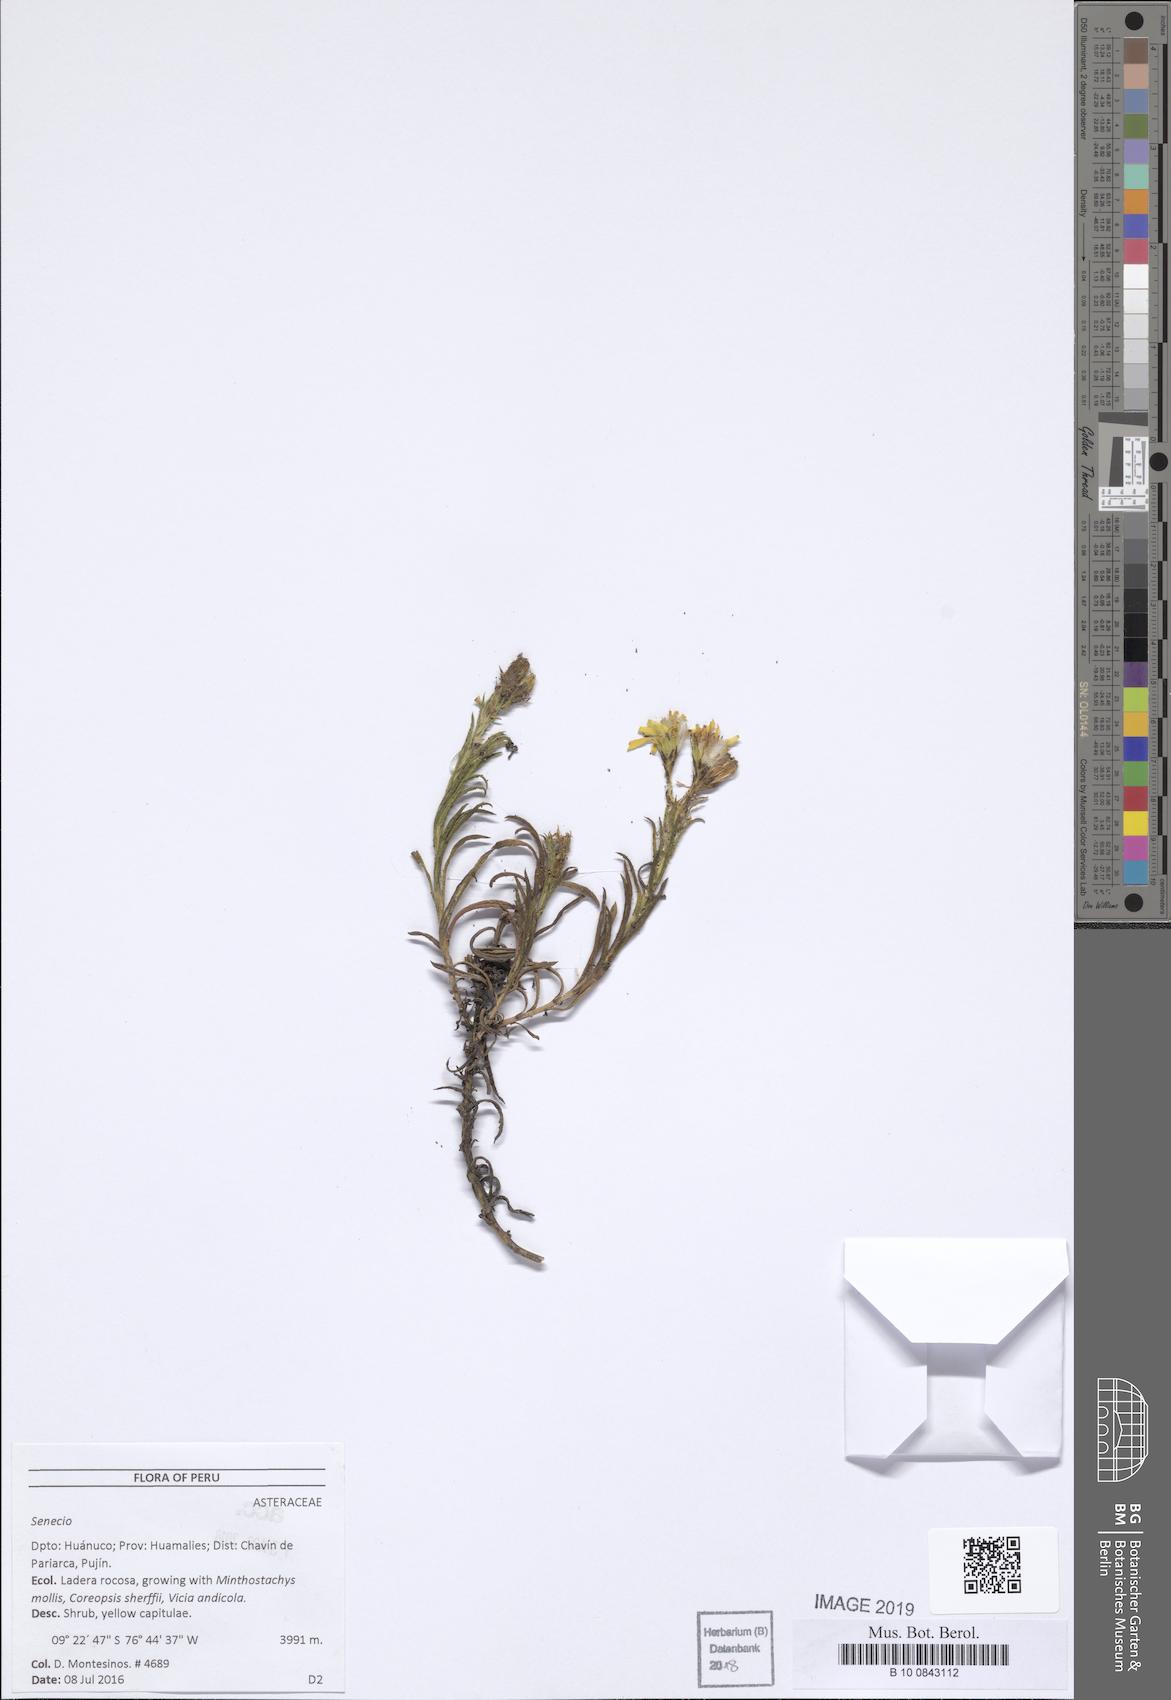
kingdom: Plantae
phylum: Tracheophyta
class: Magnoliopsida
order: Asterales
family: Asteraceae
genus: Senecio
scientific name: Senecio melanocalyx
